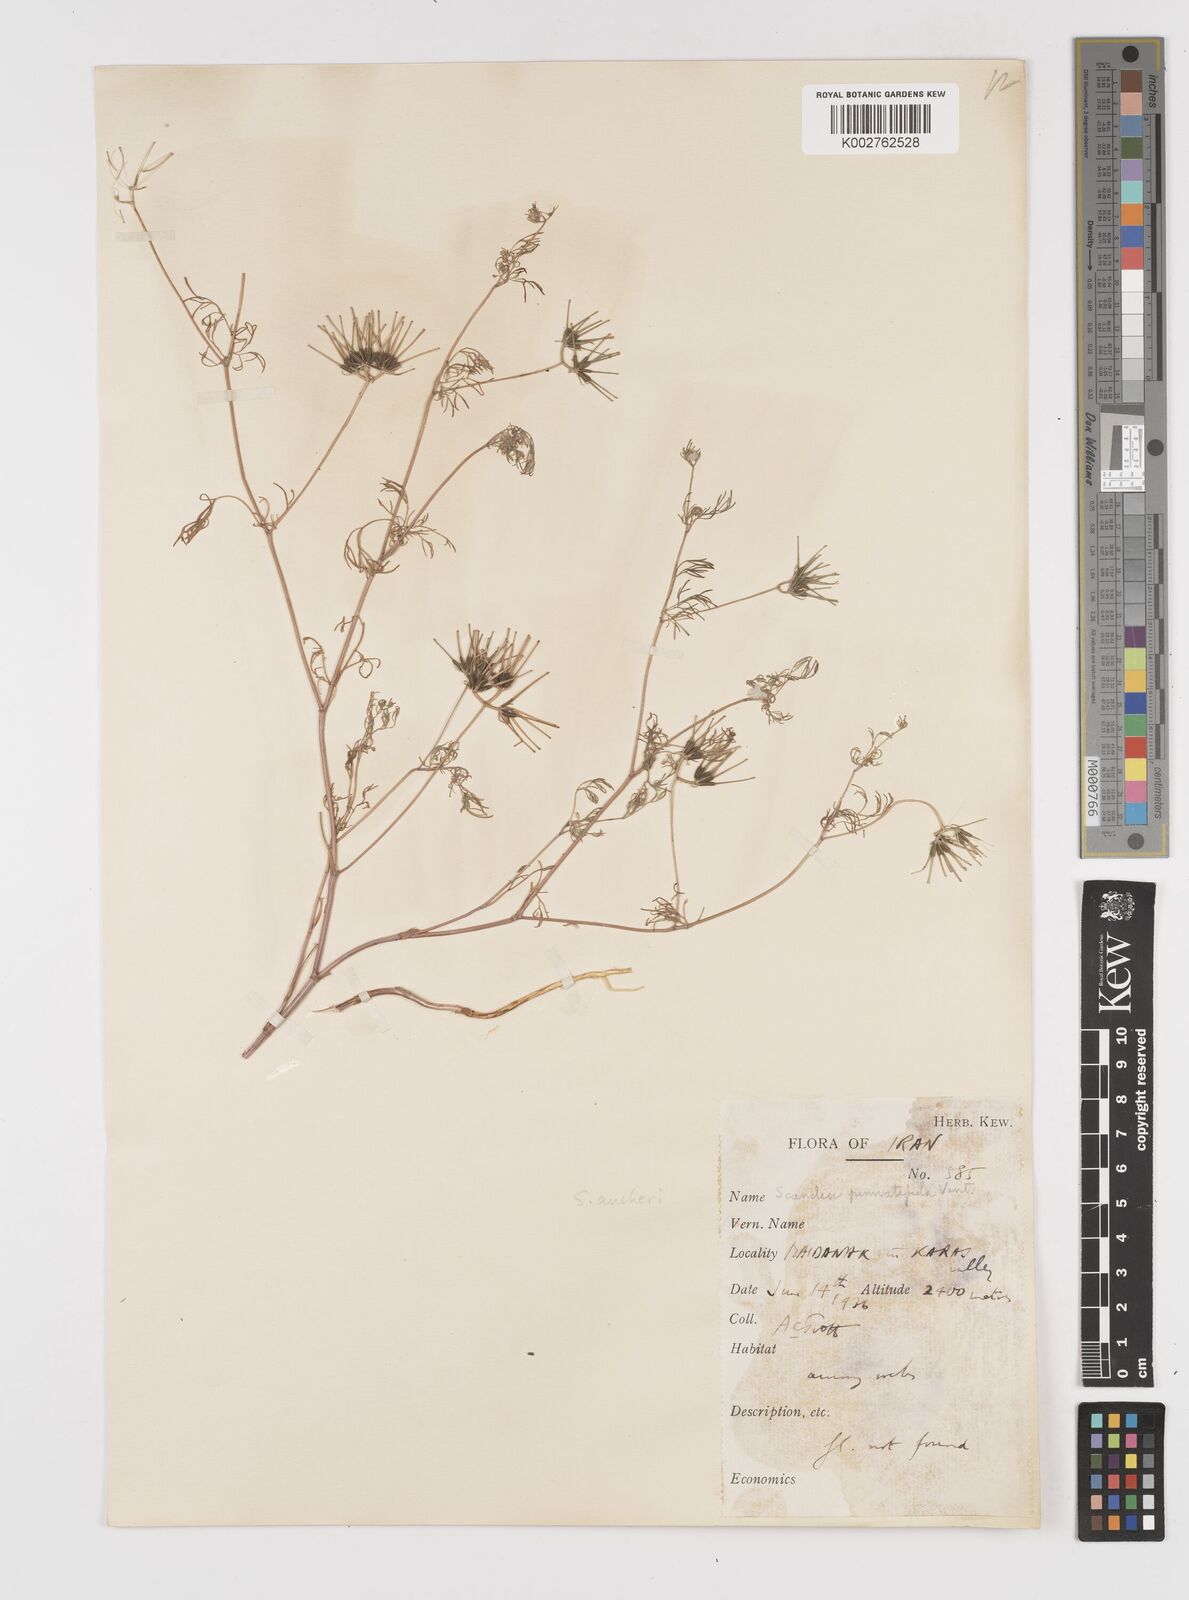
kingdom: Plantae
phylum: Tracheophyta
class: Magnoliopsida
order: Apiales
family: Apiaceae
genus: Scandix
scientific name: Scandix aucheri
